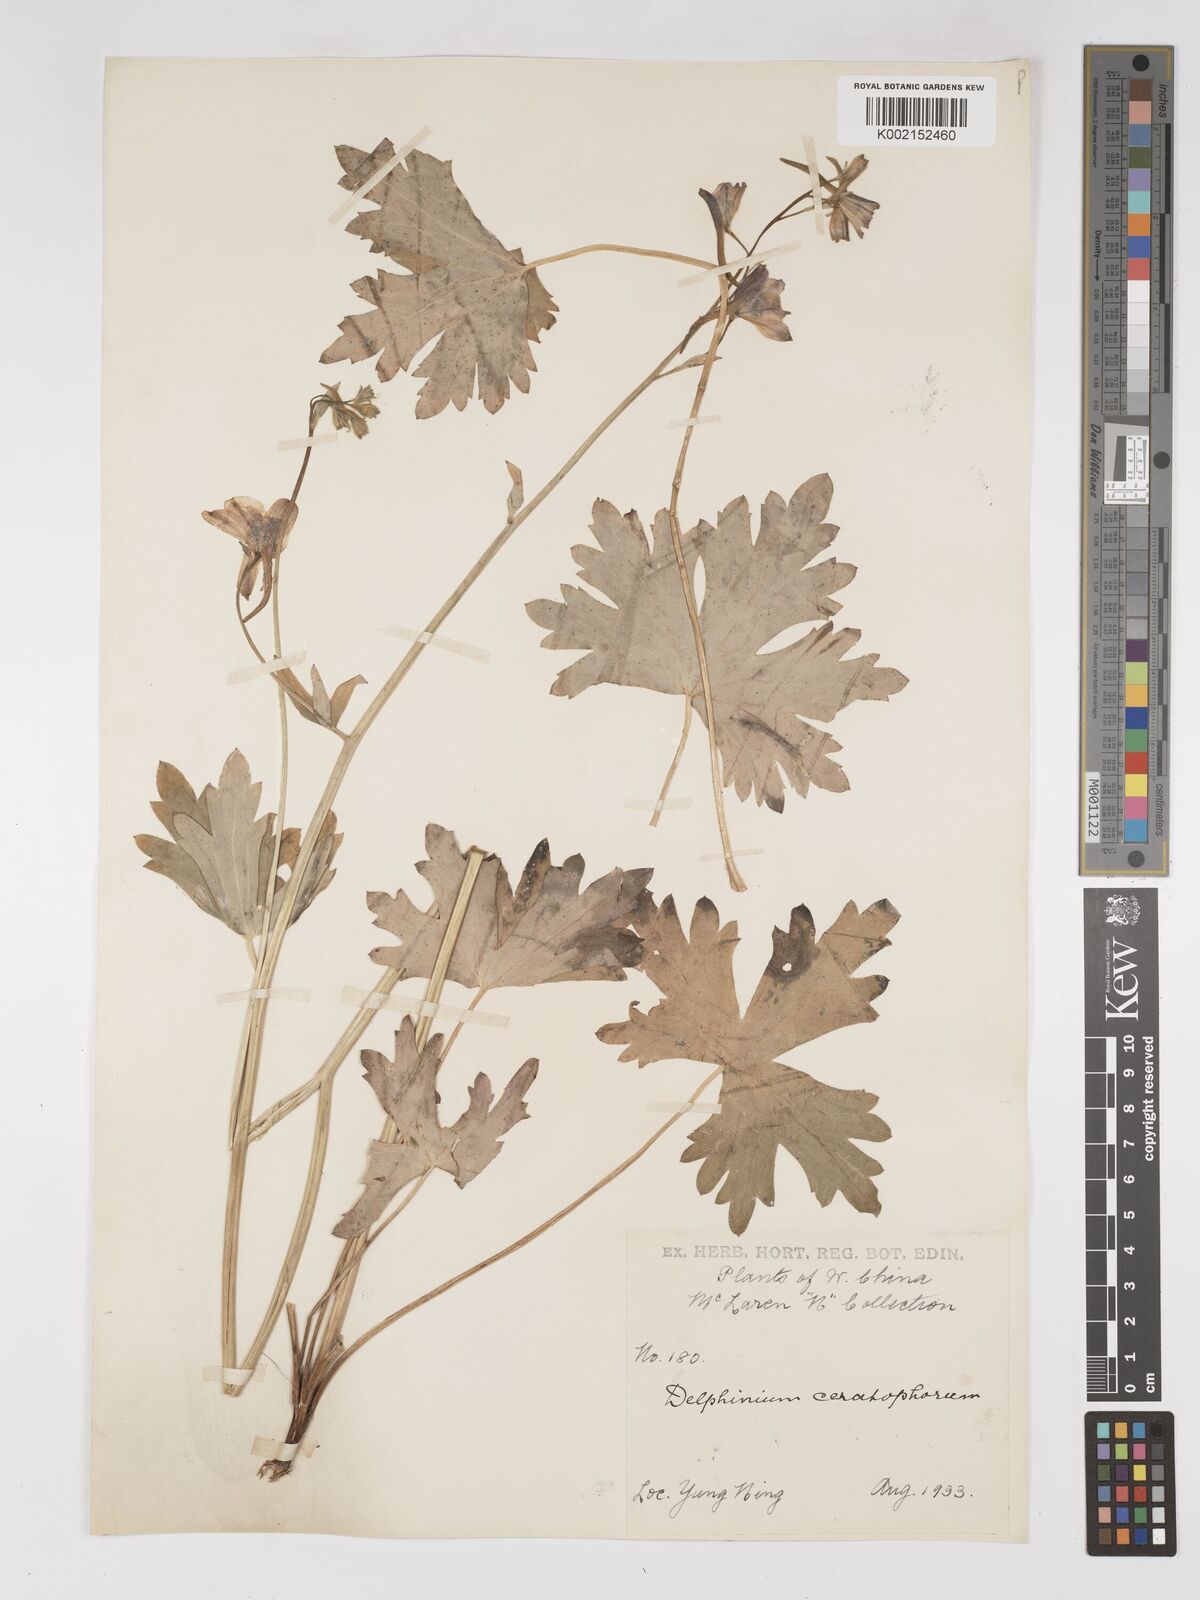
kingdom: Plantae
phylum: Tracheophyta
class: Magnoliopsida
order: Ranunculales
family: Ranunculaceae
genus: Delphinium
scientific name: Delphinium ceratophorum
